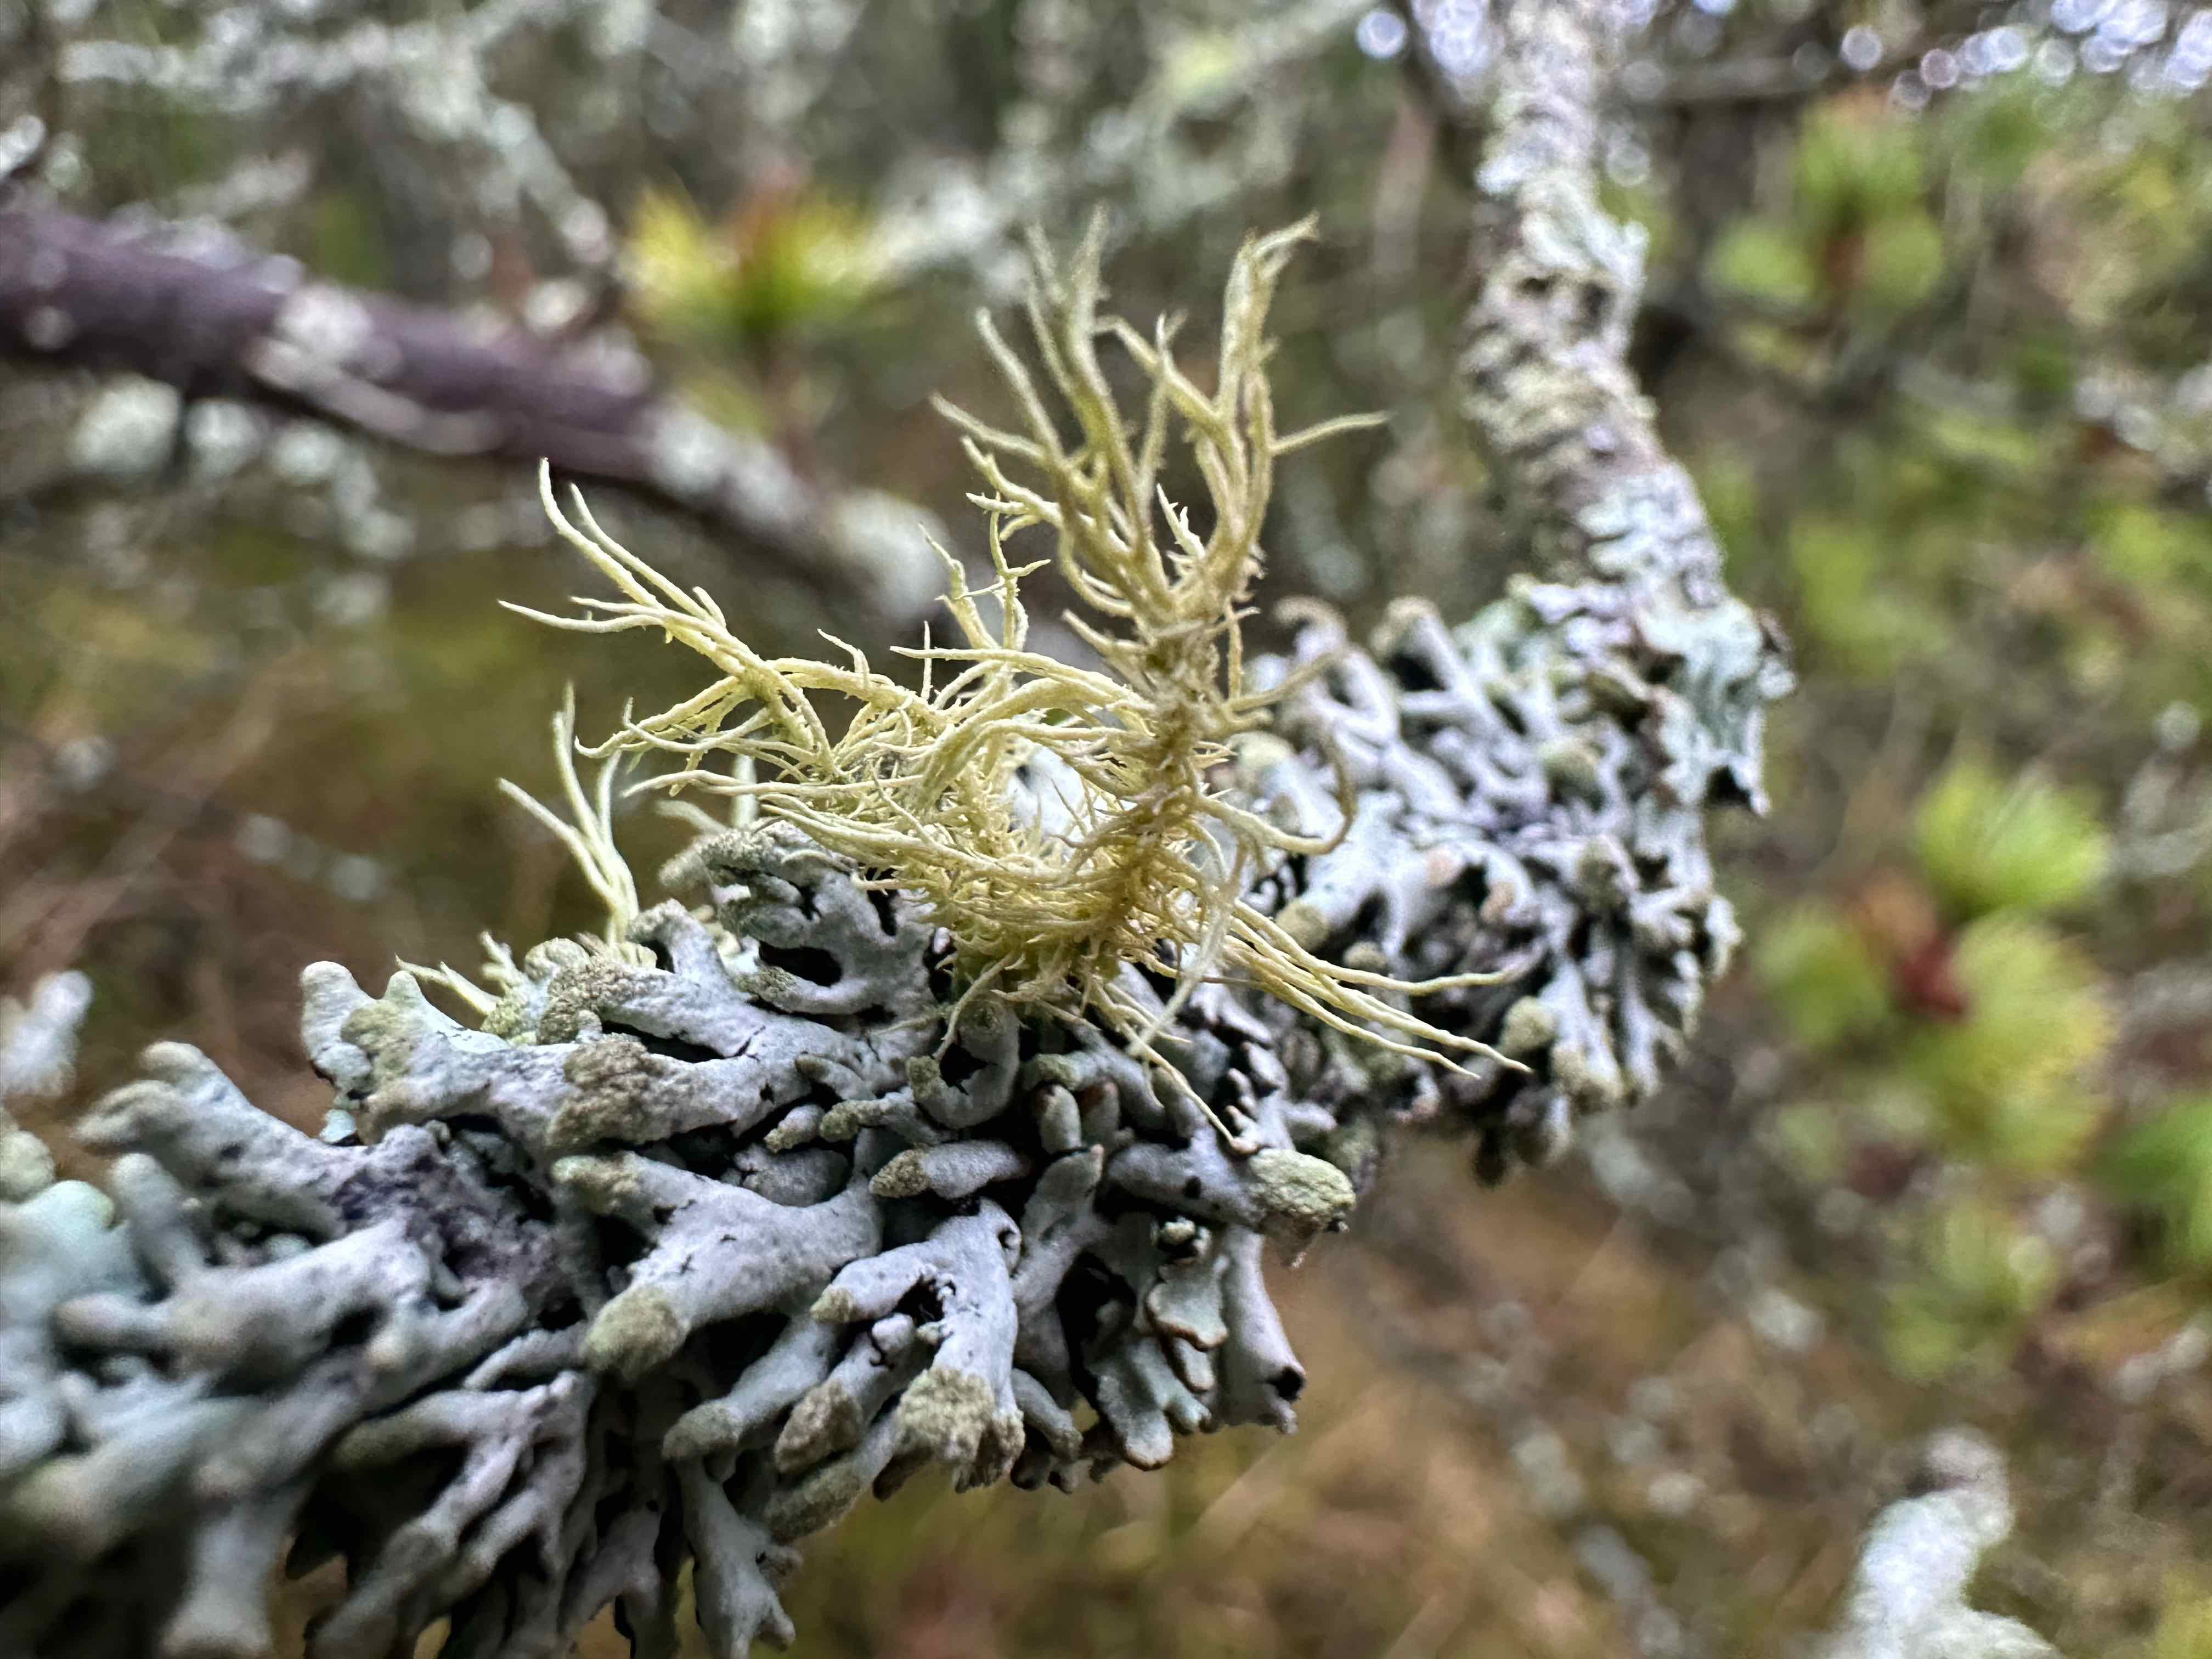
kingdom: Fungi
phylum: Ascomycota
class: Lecanoromycetes
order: Lecanorales
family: Parmeliaceae
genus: Usnea
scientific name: Usnea hirta
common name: liden skæglav
